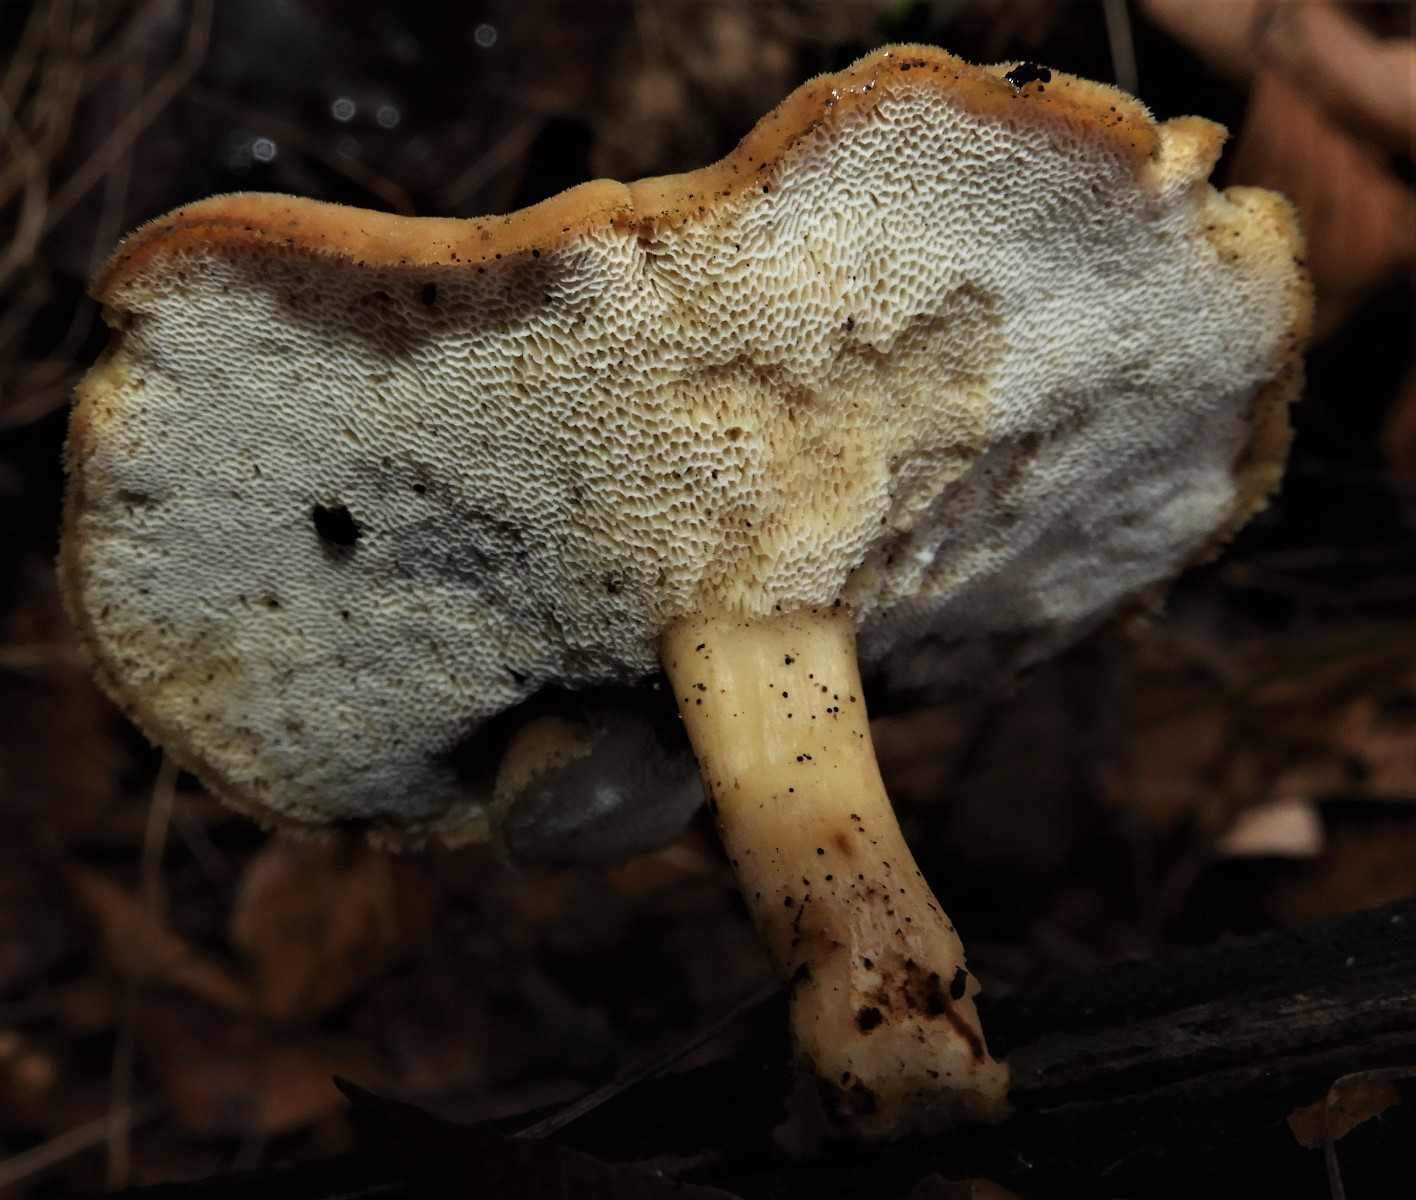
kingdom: Fungi
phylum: Basidiomycota
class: Agaricomycetes
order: Polyporales
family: Polyporaceae
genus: Lentinus
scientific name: Lentinus brumalis
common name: vinter-stilkporesvamp
